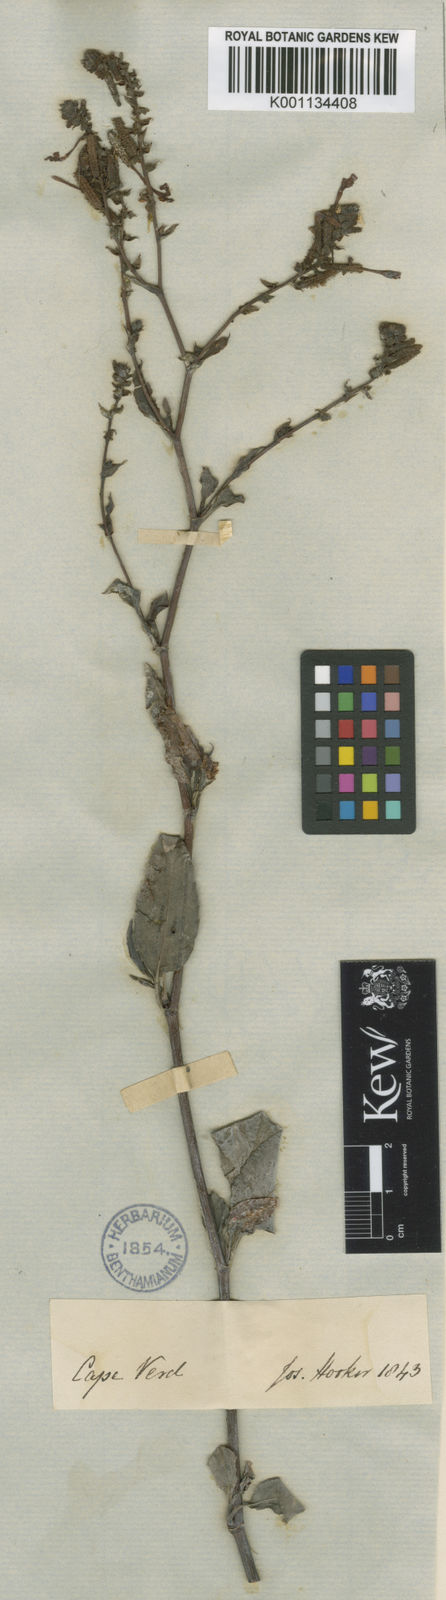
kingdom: Plantae
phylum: Tracheophyta
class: Magnoliopsida
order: Caryophyllales
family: Plumbaginaceae
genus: Plumbago
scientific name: Plumbago
